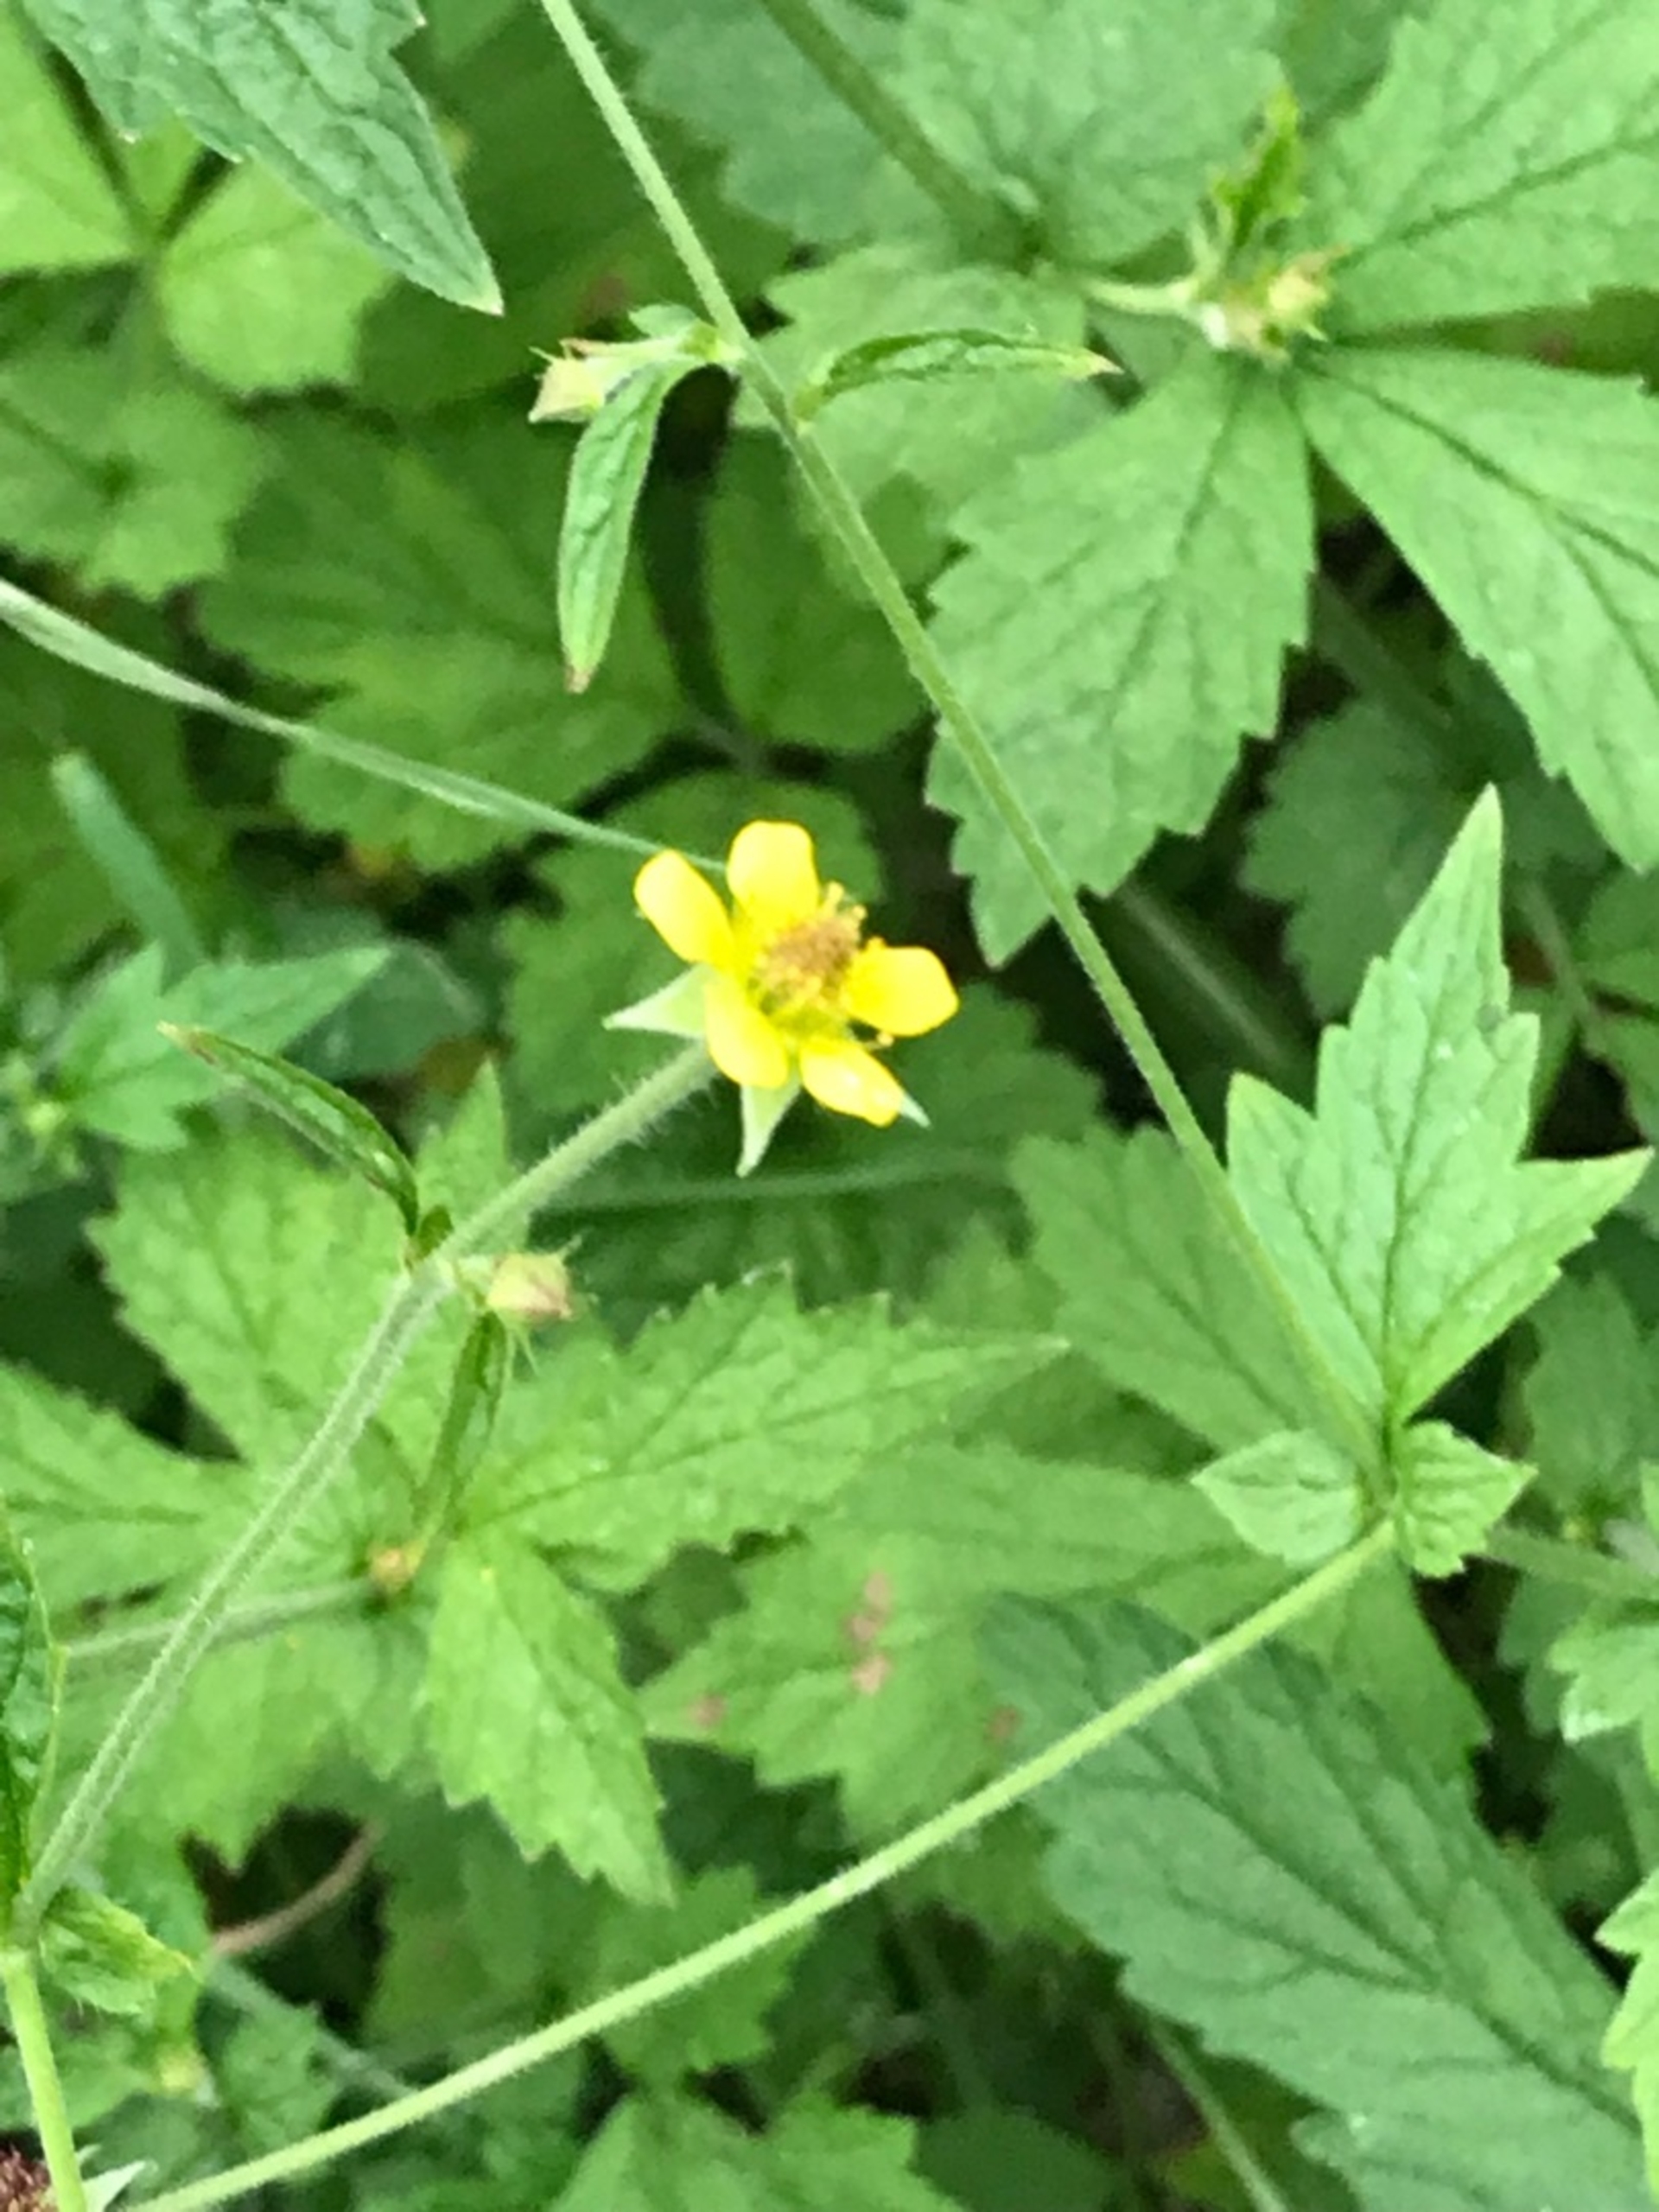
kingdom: Plantae
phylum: Tracheophyta
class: Magnoliopsida
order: Rosales
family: Rosaceae
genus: Geum
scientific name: Geum urbanum
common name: Feber-nellikerod
